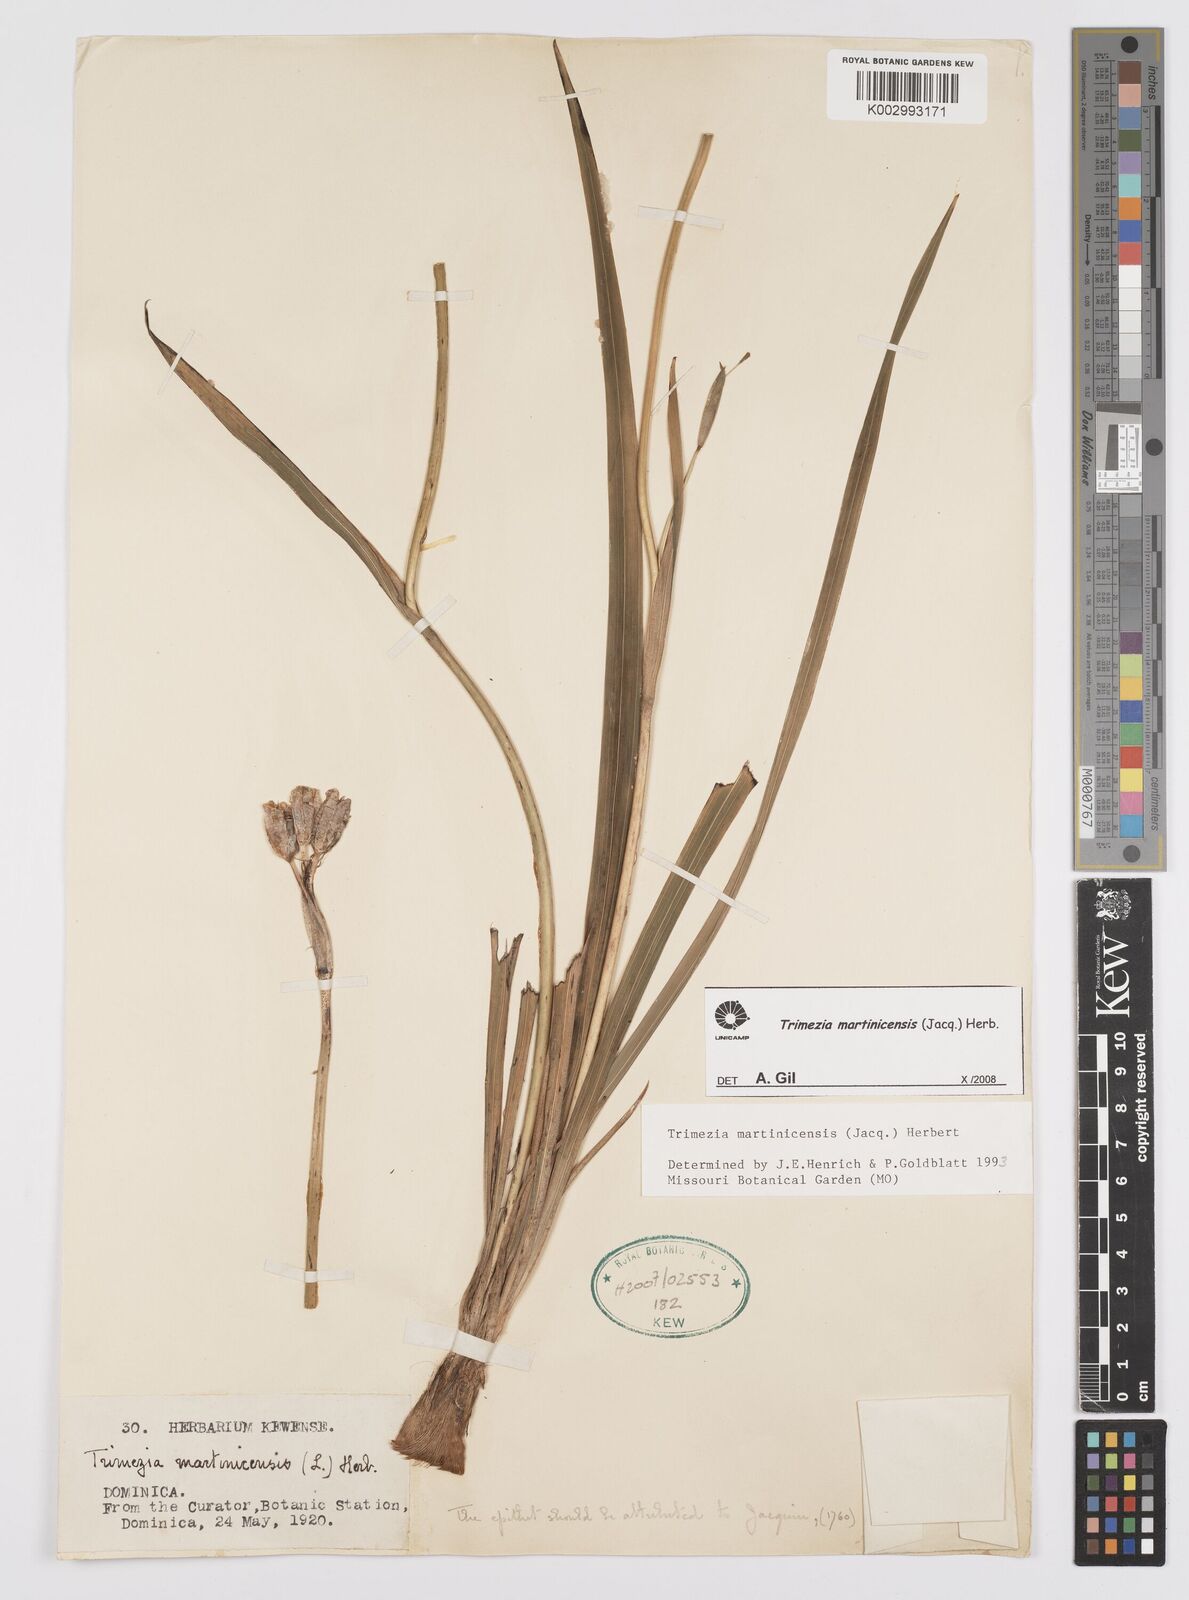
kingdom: Plantae
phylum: Tracheophyta
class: Liliopsida
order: Asparagales
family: Iridaceae
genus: Trimezia
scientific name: Trimezia martinicensis
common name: Martinique trimezia
